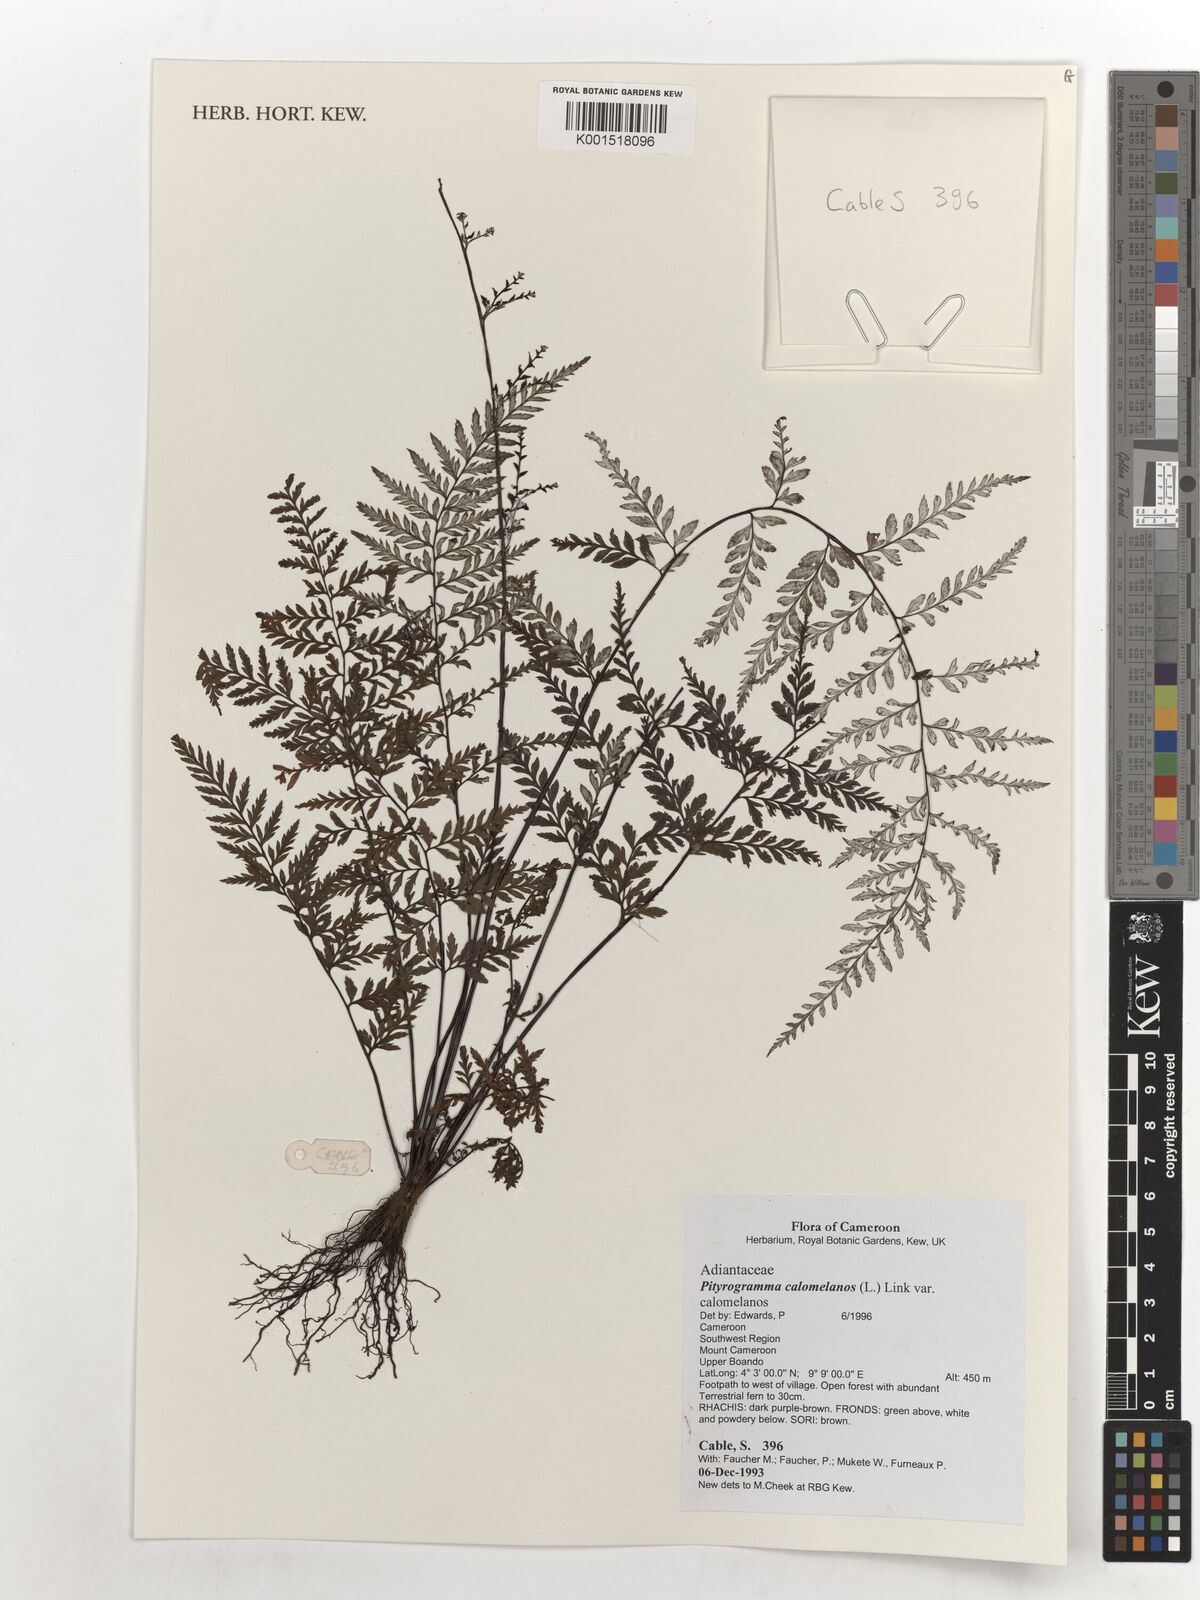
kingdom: Plantae
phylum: Tracheophyta
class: Polypodiopsida
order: Polypodiales
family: Pteridaceae
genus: Pityrogramma
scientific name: Pityrogramma calomelanos
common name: Dixie silverback fern
